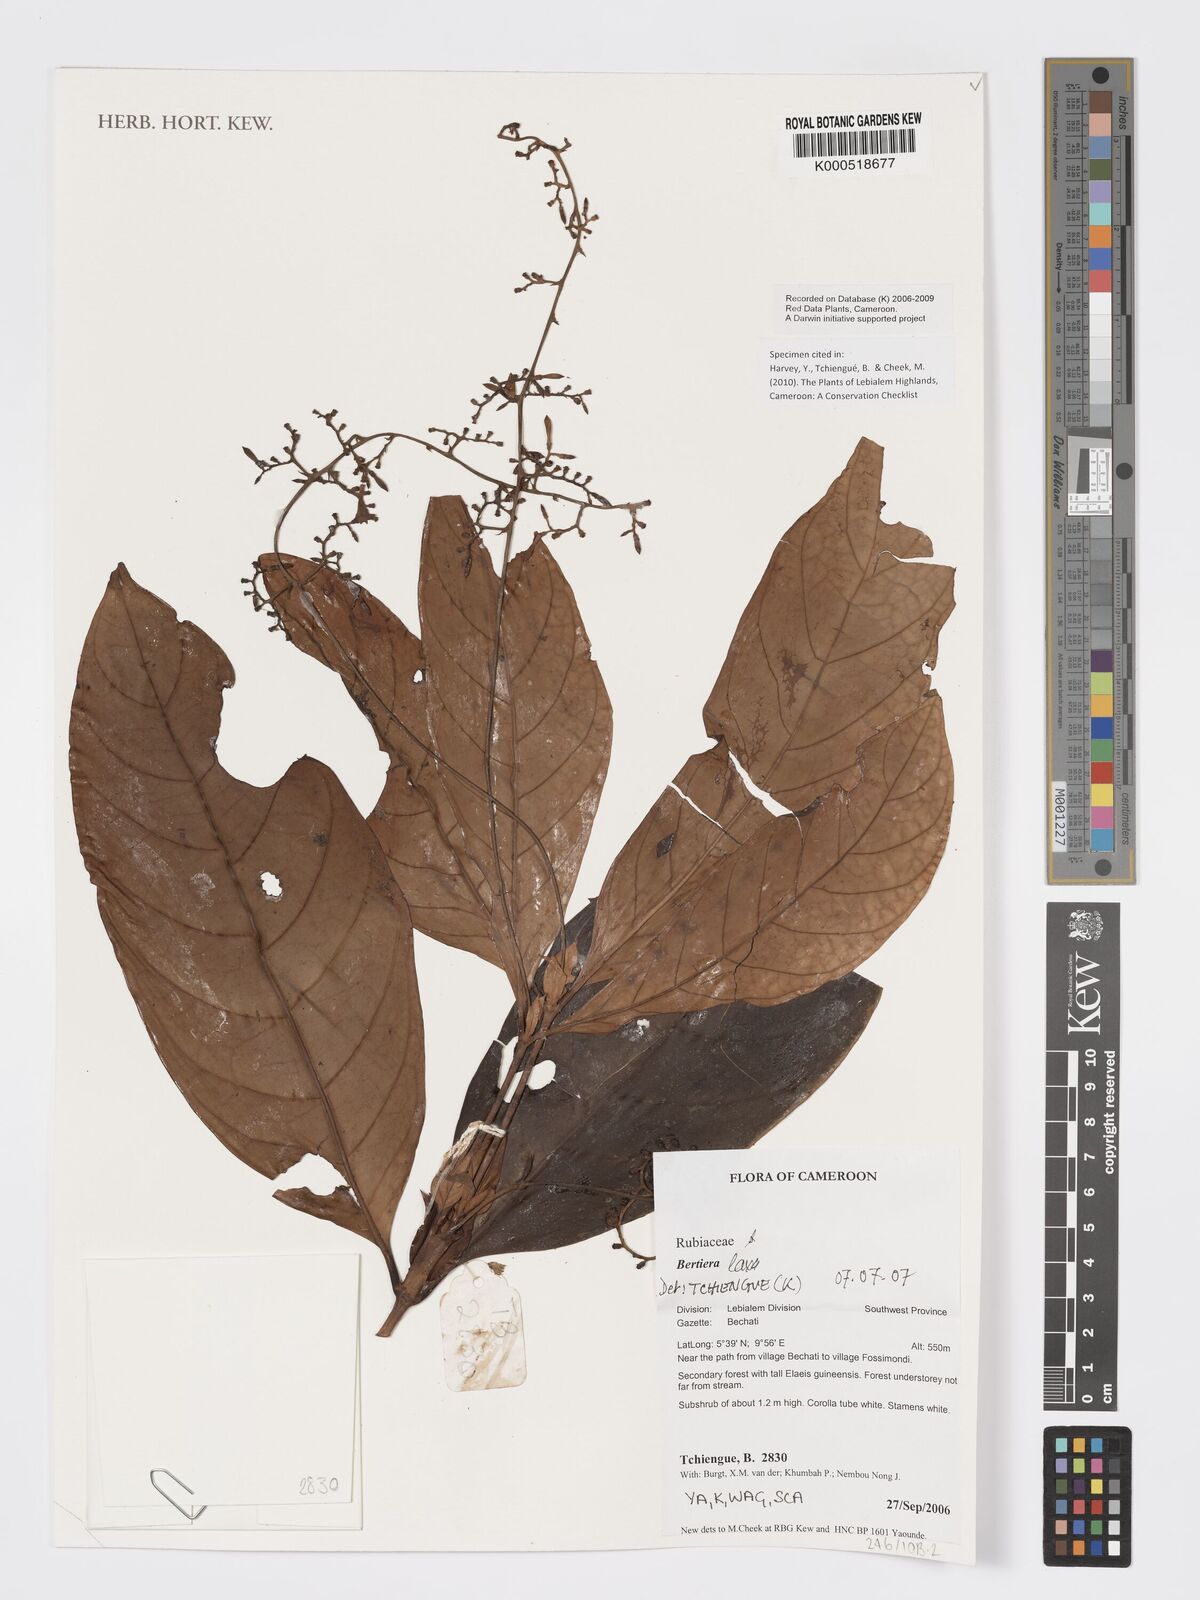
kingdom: Plantae
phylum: Tracheophyta
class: Magnoliopsida
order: Gentianales
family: Rubiaceae
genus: Bertiera
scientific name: Bertiera laxa
